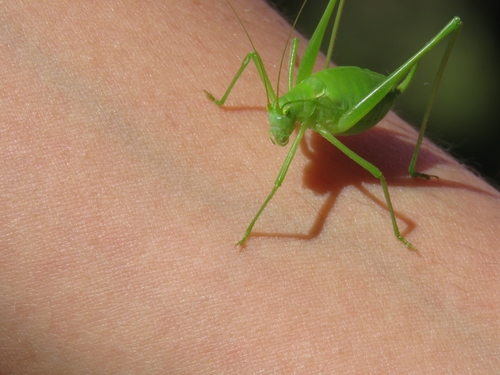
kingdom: Animalia
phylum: Arthropoda
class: Insecta
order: Orthoptera
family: Tettigoniidae
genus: Odontura
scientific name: Odontura glabricauda
